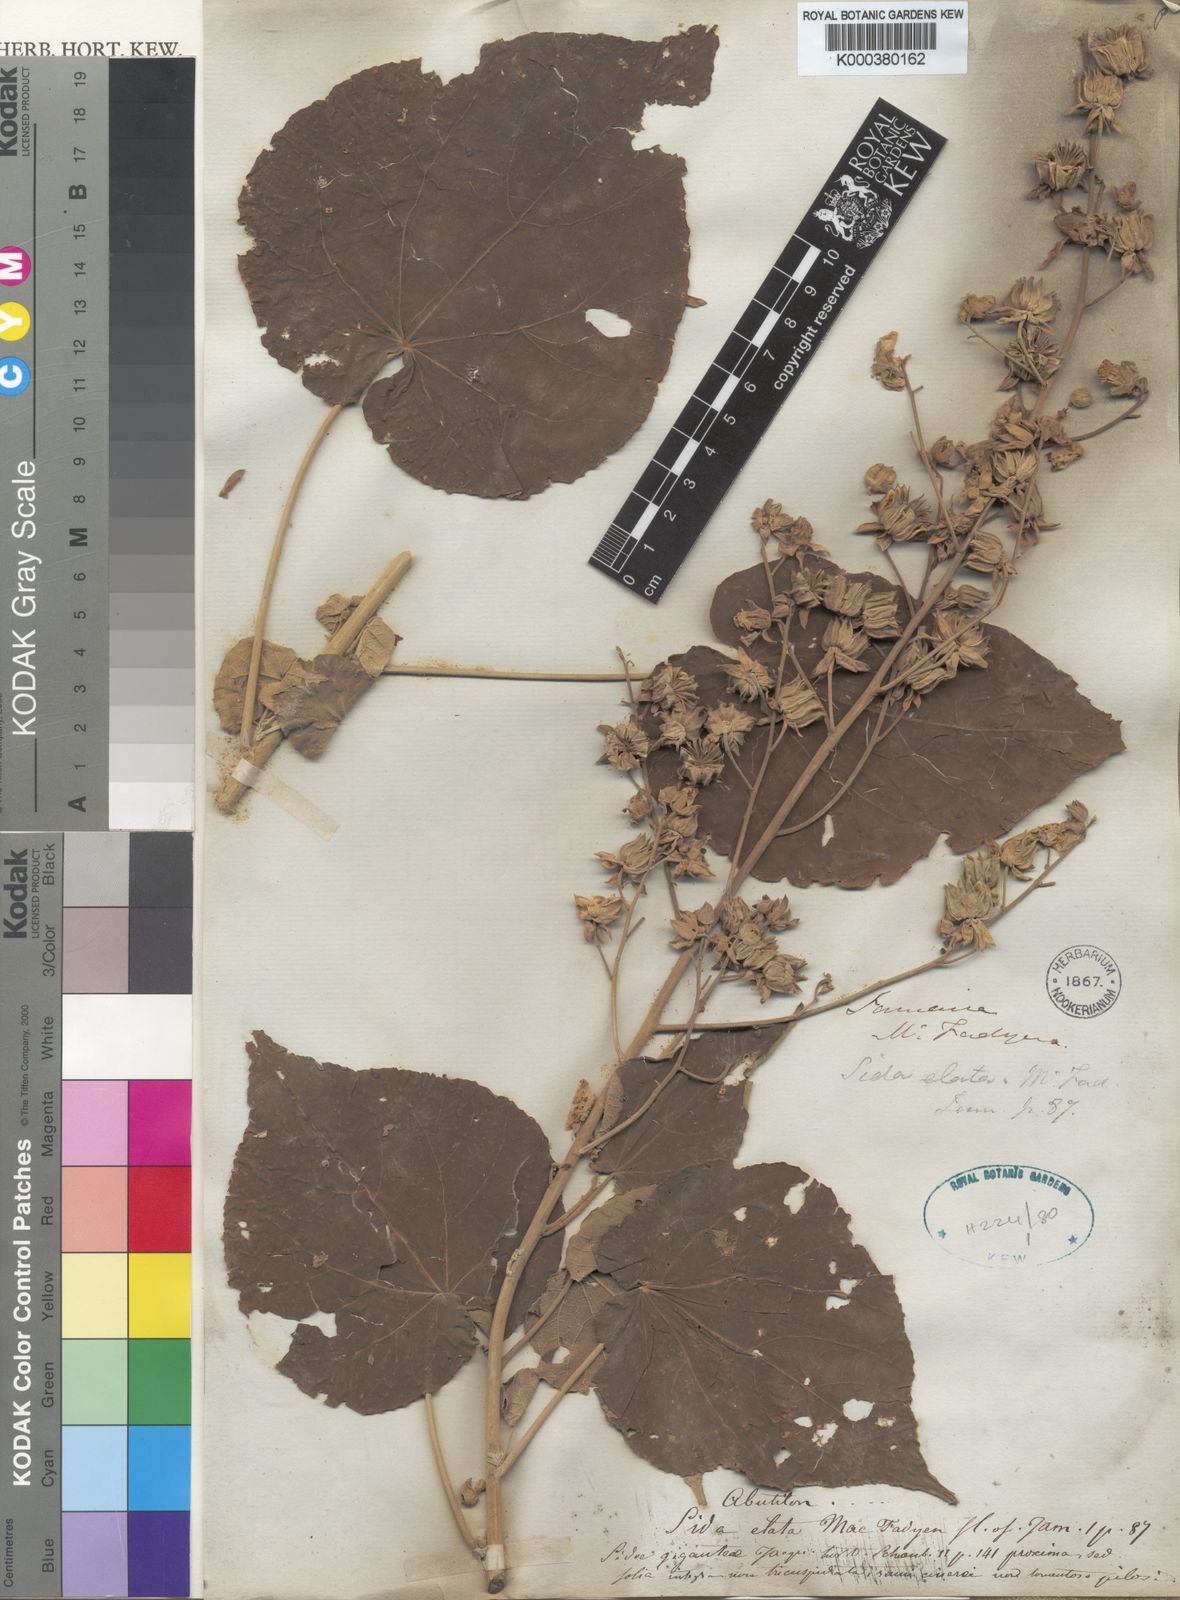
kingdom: Plantae
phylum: Tracheophyta
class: Magnoliopsida
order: Malvales
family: Malvaceae
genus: Abutilon
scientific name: Abutilon giganteum
